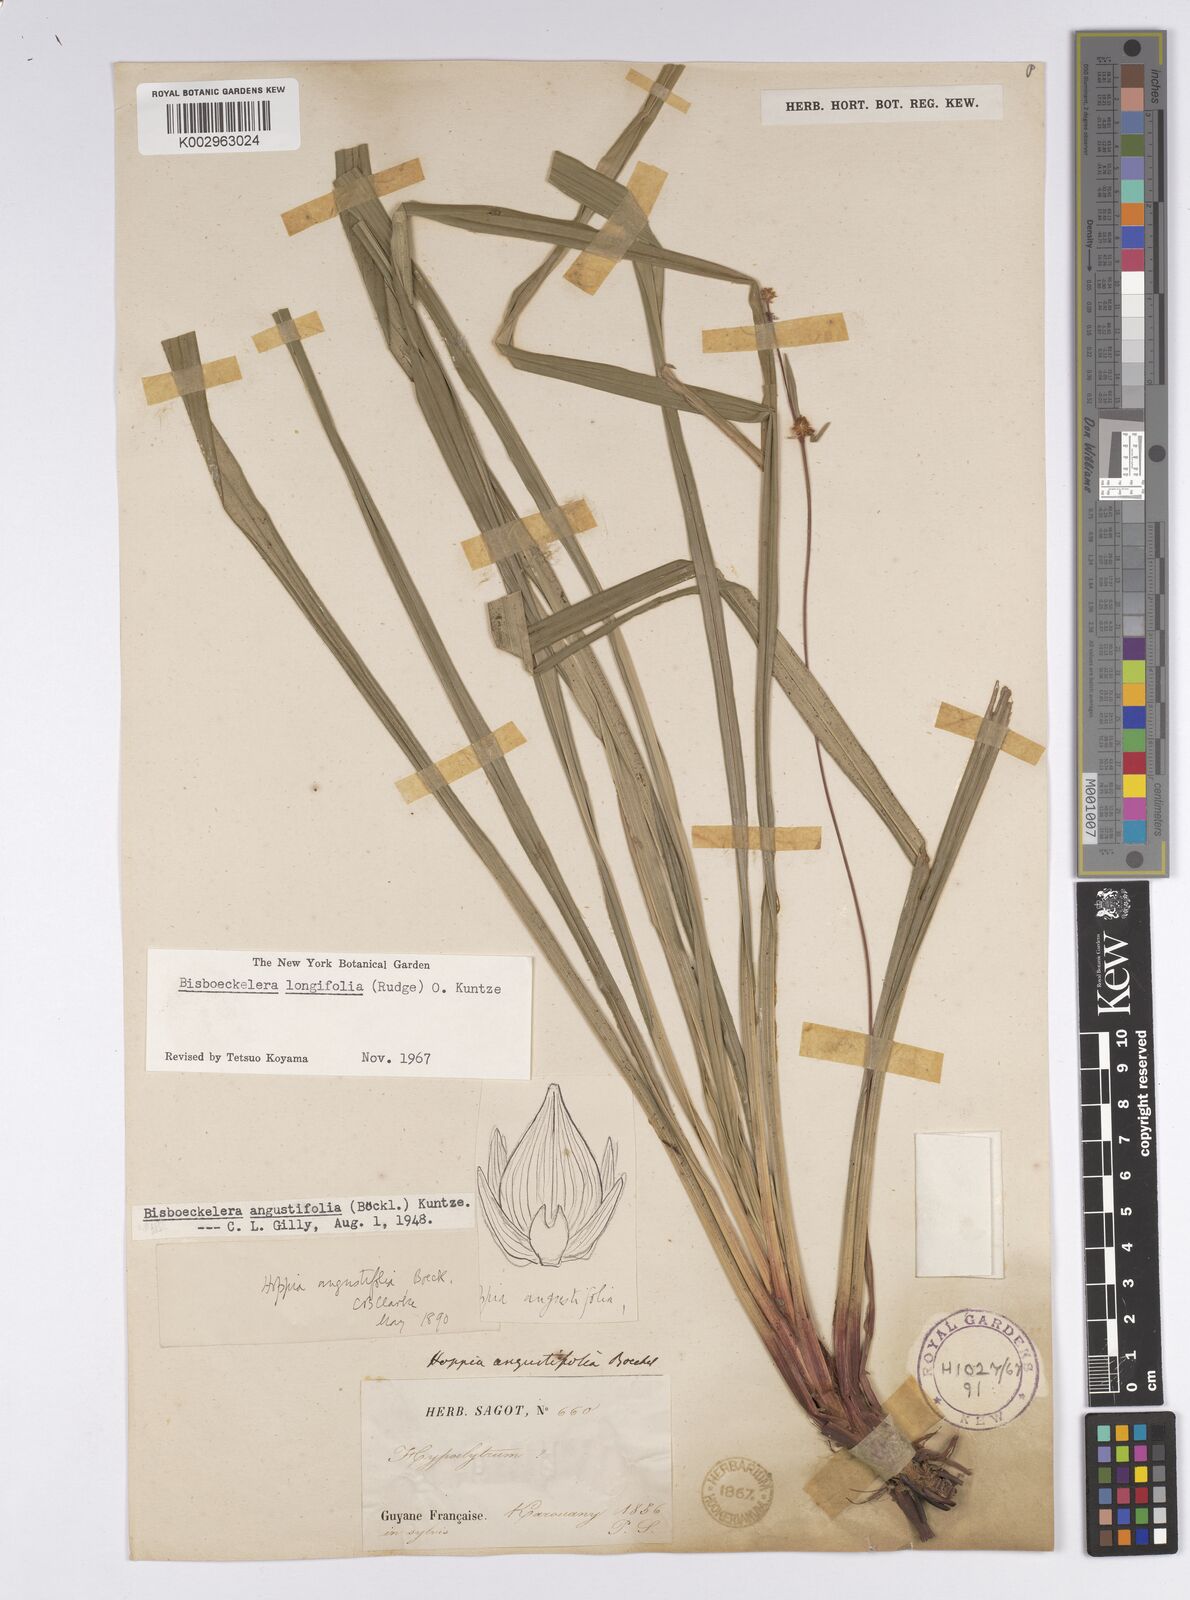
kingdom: Plantae
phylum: Tracheophyta
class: Liliopsida
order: Poales
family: Cyperaceae
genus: Bisboeckelera
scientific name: Bisboeckelera microcephala
